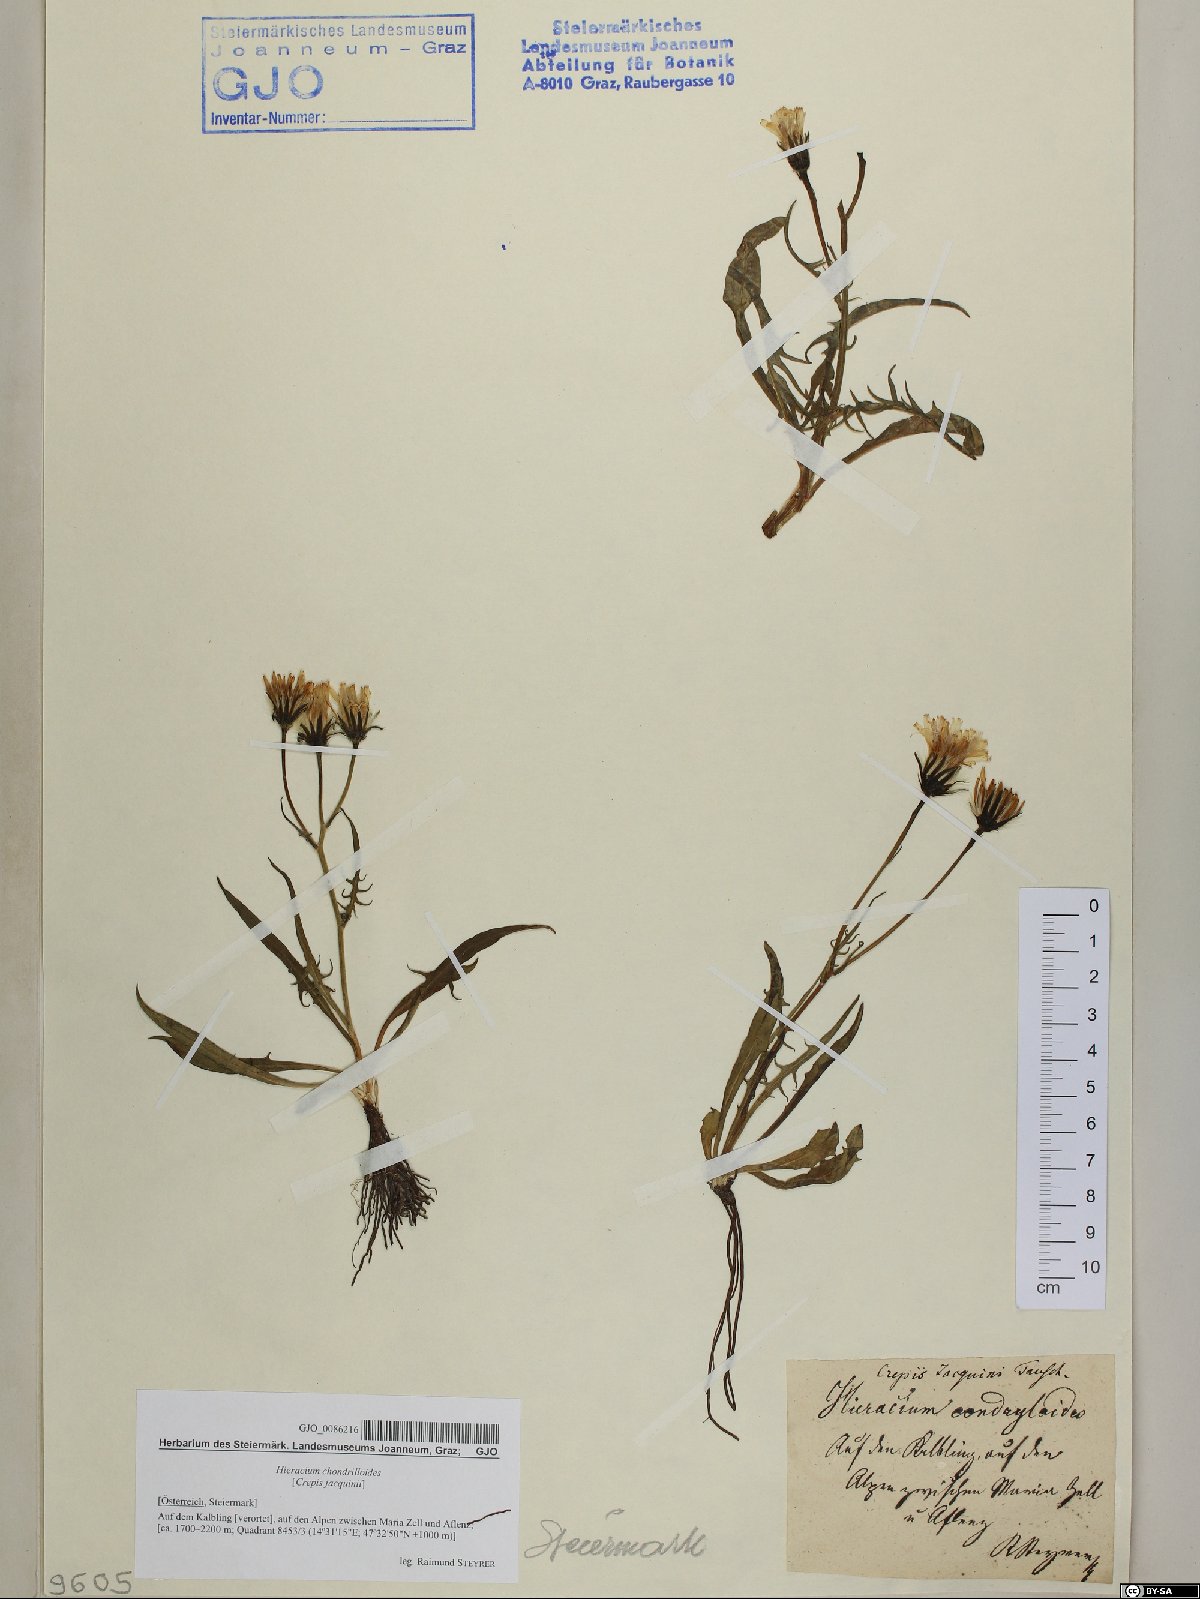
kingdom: Plantae
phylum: Tracheophyta
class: Magnoliopsida
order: Asterales
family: Asteraceae
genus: Crepis
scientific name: Crepis jacquinii
